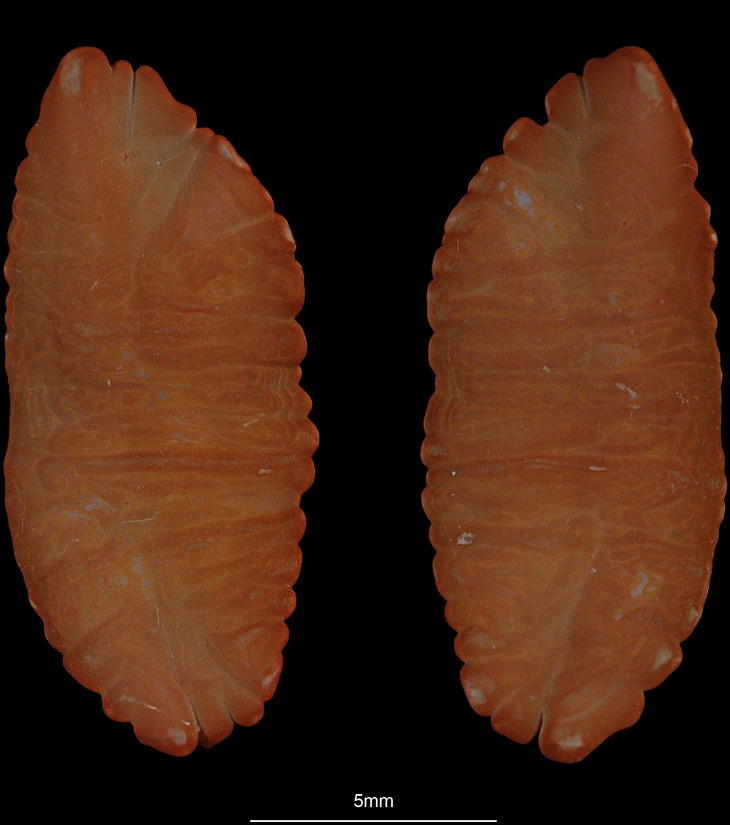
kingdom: Animalia
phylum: Chordata
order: Gadiformes
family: Lotidae
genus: Molva
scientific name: Molva dypterygia
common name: Blue ling
